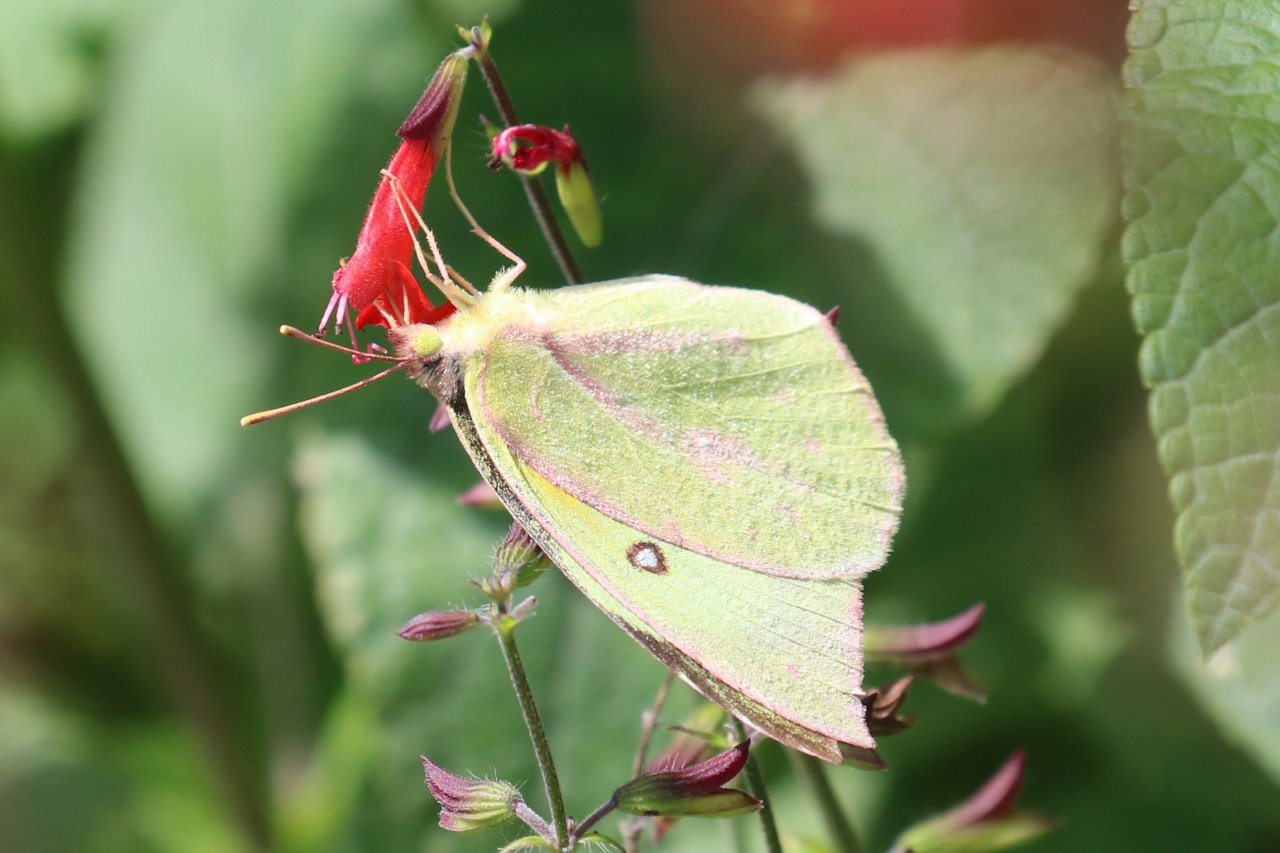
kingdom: Animalia
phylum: Arthropoda
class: Insecta
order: Lepidoptera
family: Pieridae
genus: Zerene
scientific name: Zerene cesonia
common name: Southern Dogface
